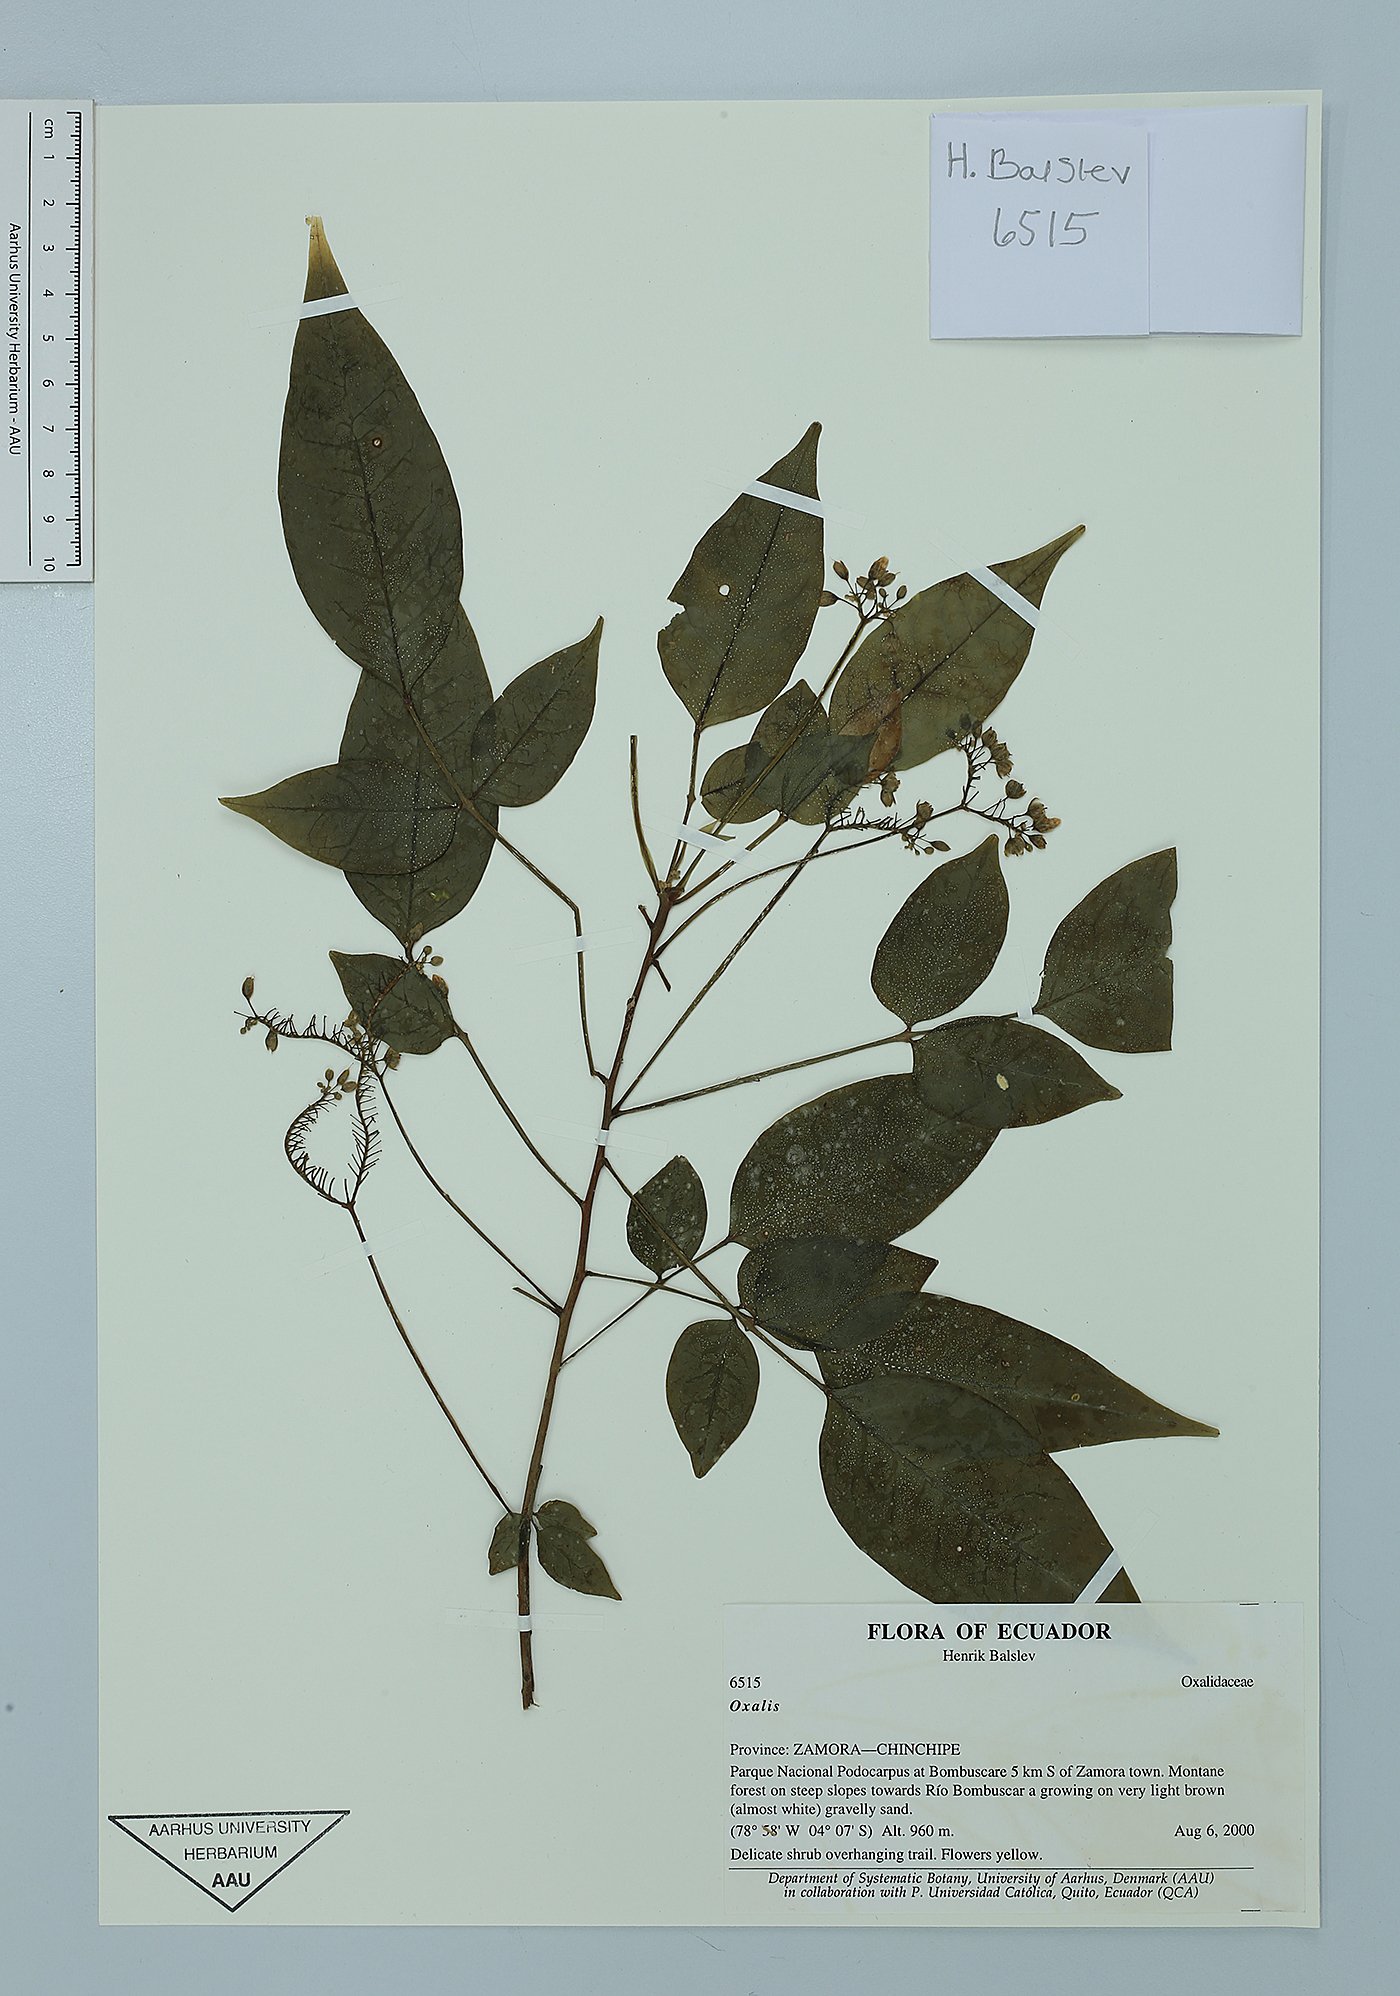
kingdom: Plantae
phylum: Tracheophyta
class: Magnoliopsida
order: Oxalidales
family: Oxalidaceae
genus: Oxalis
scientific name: Oxalis
